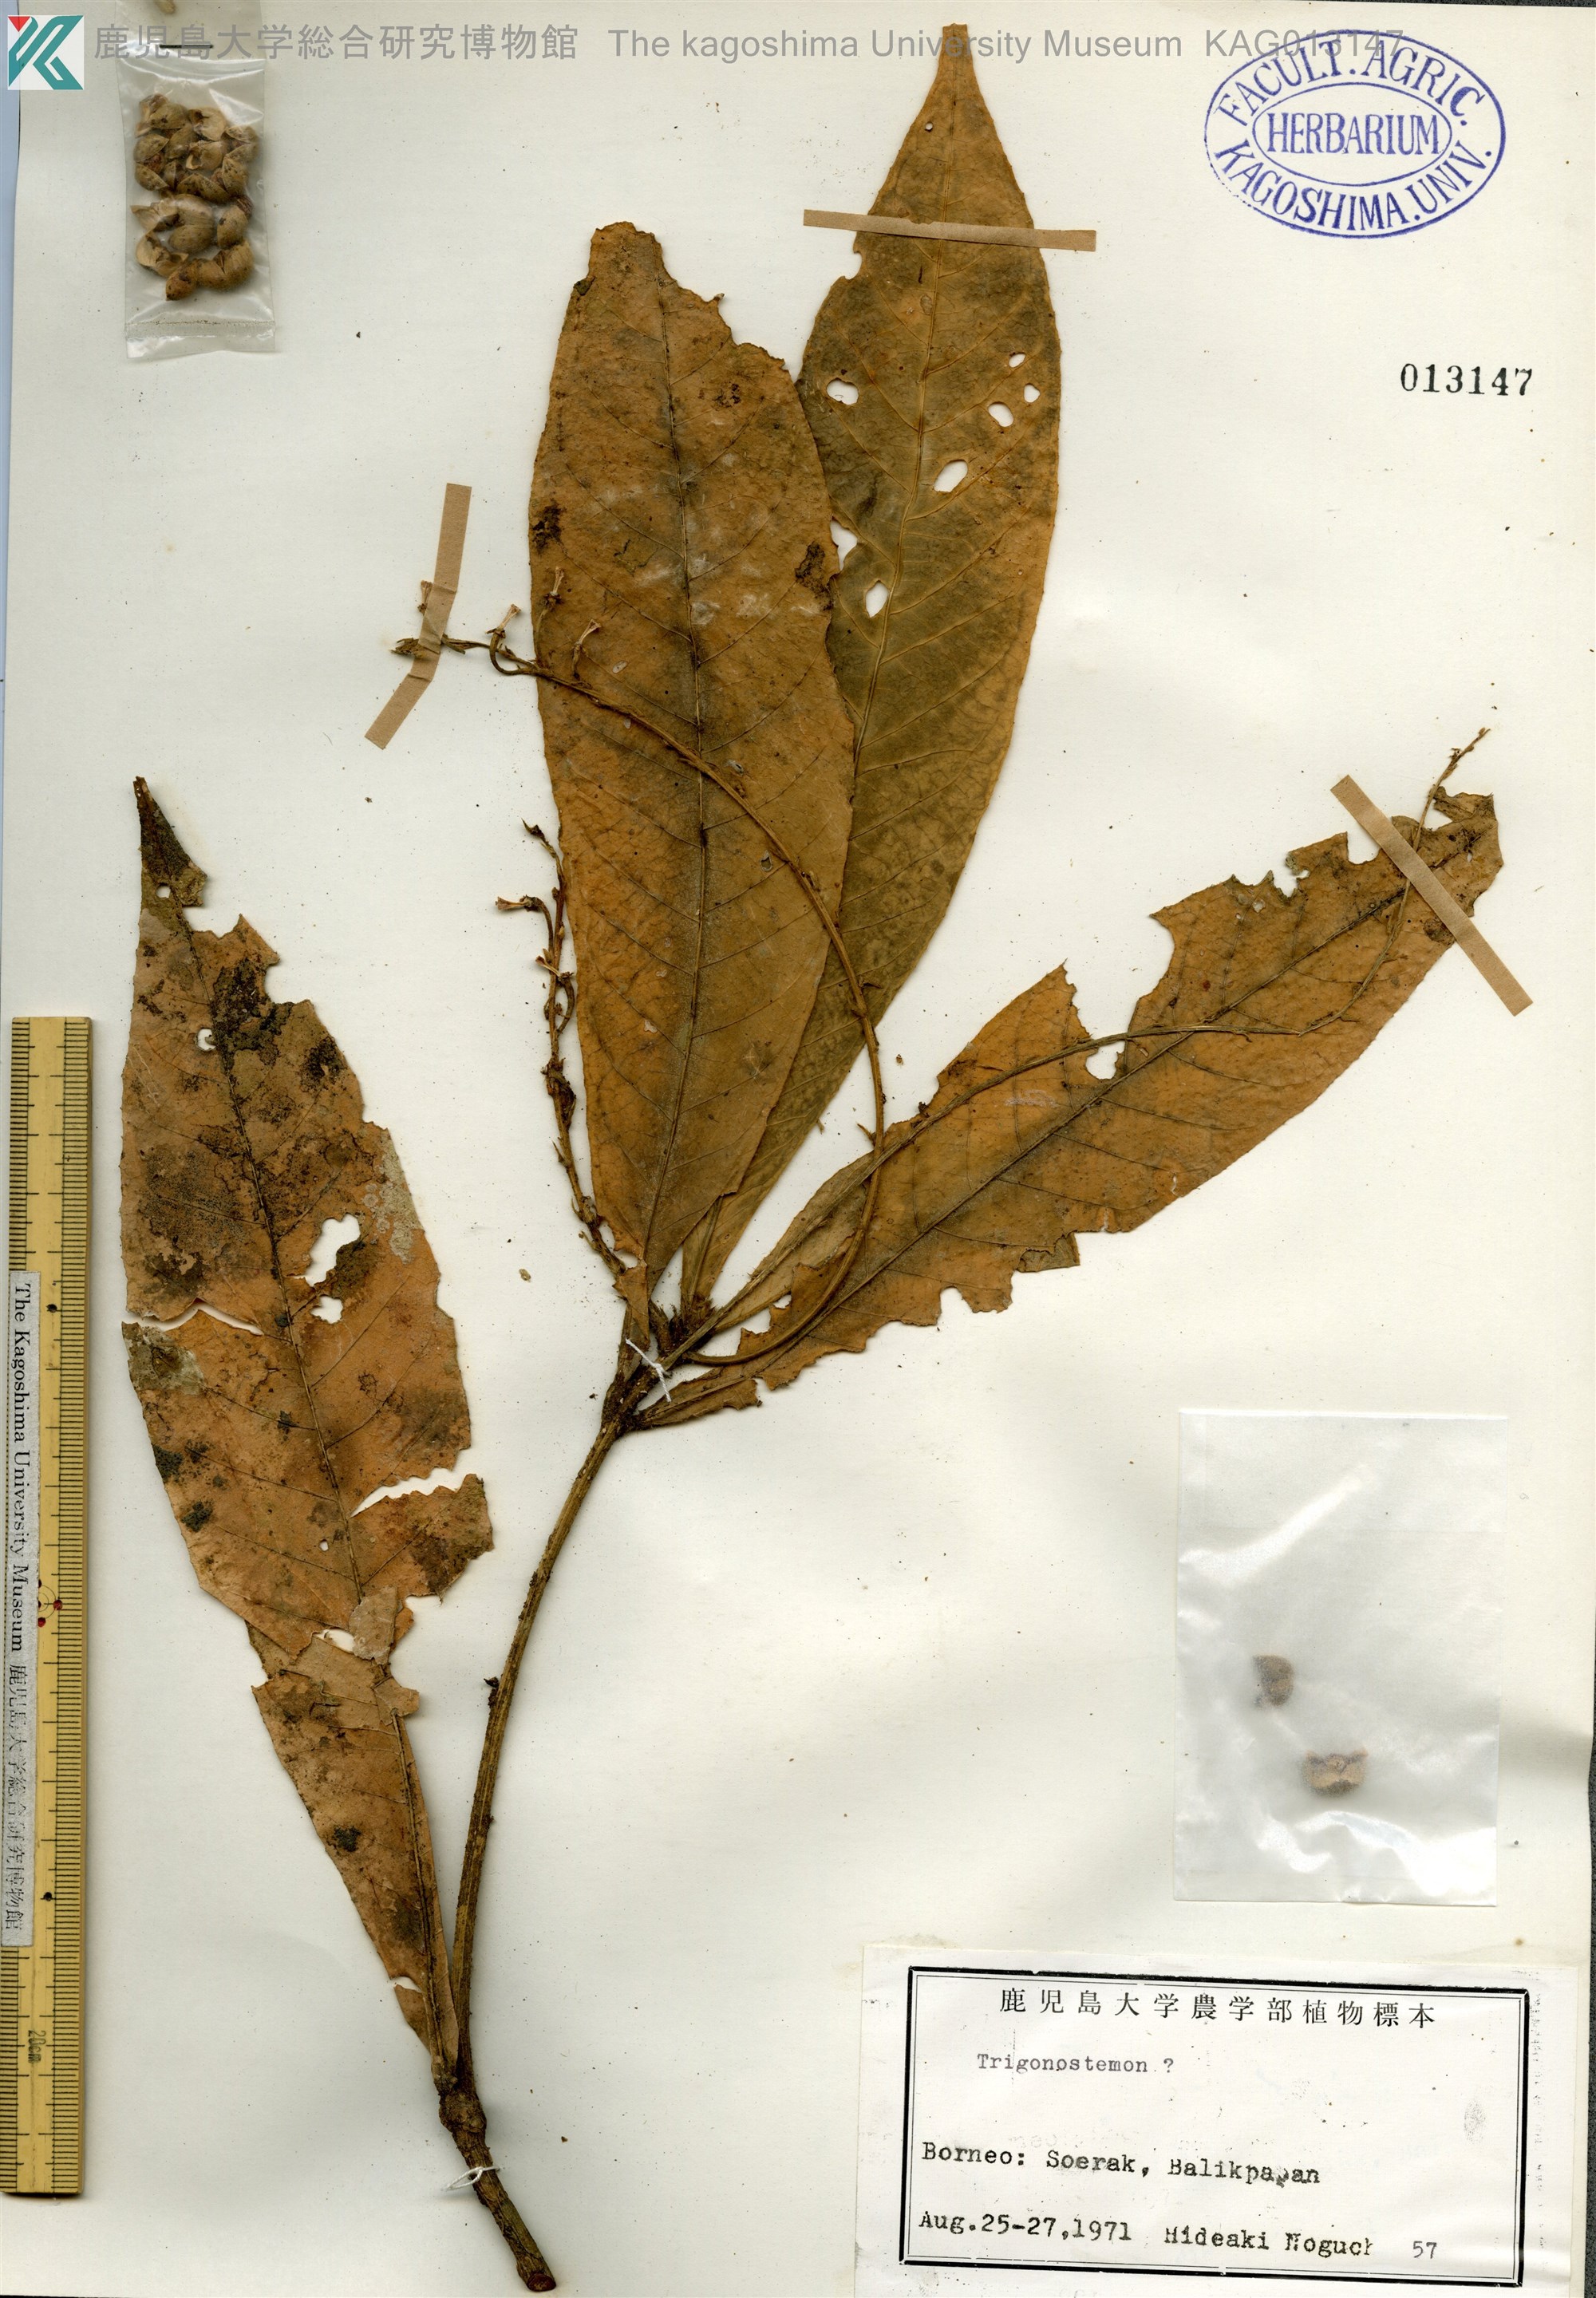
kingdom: Plantae
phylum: Tracheophyta
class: Magnoliopsida
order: Malpighiales
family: Euphorbiaceae
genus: Trigonostemon
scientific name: Trigonostemon
